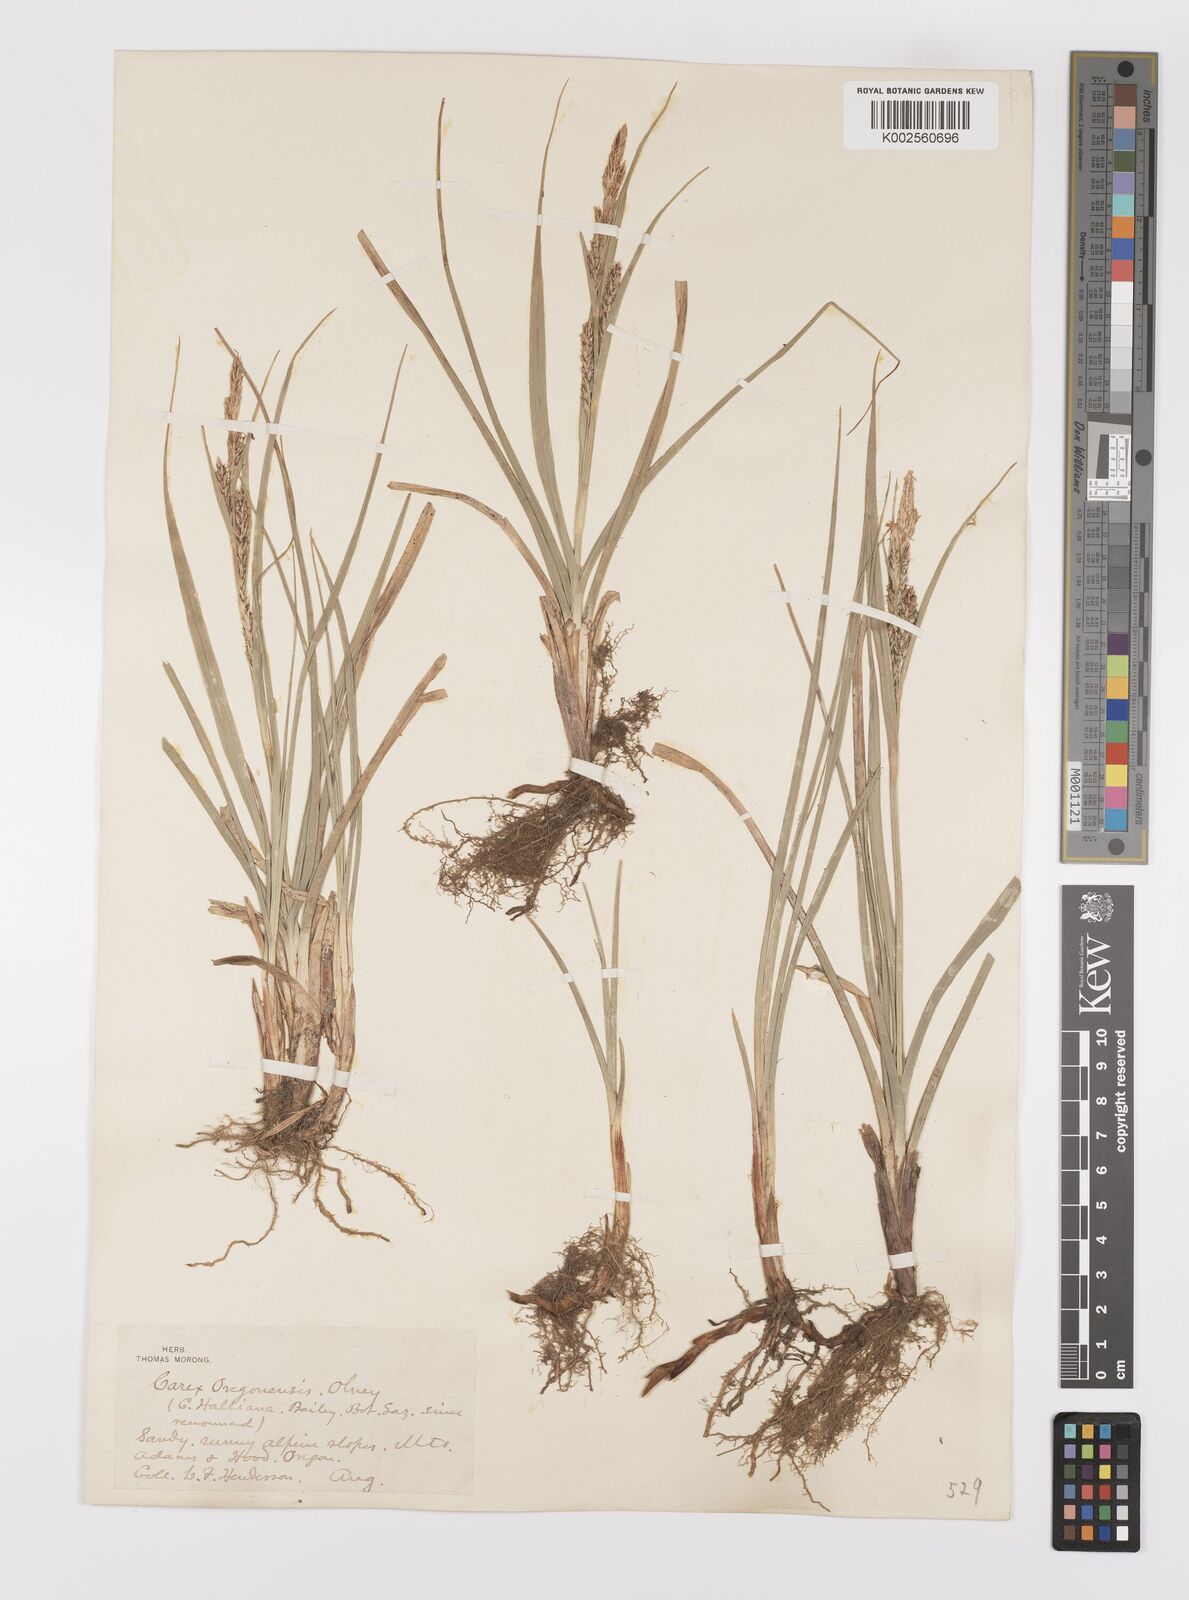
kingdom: Plantae
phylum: Tracheophyta
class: Liliopsida
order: Poales
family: Cyperaceae
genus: Carex
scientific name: Carex halliana
